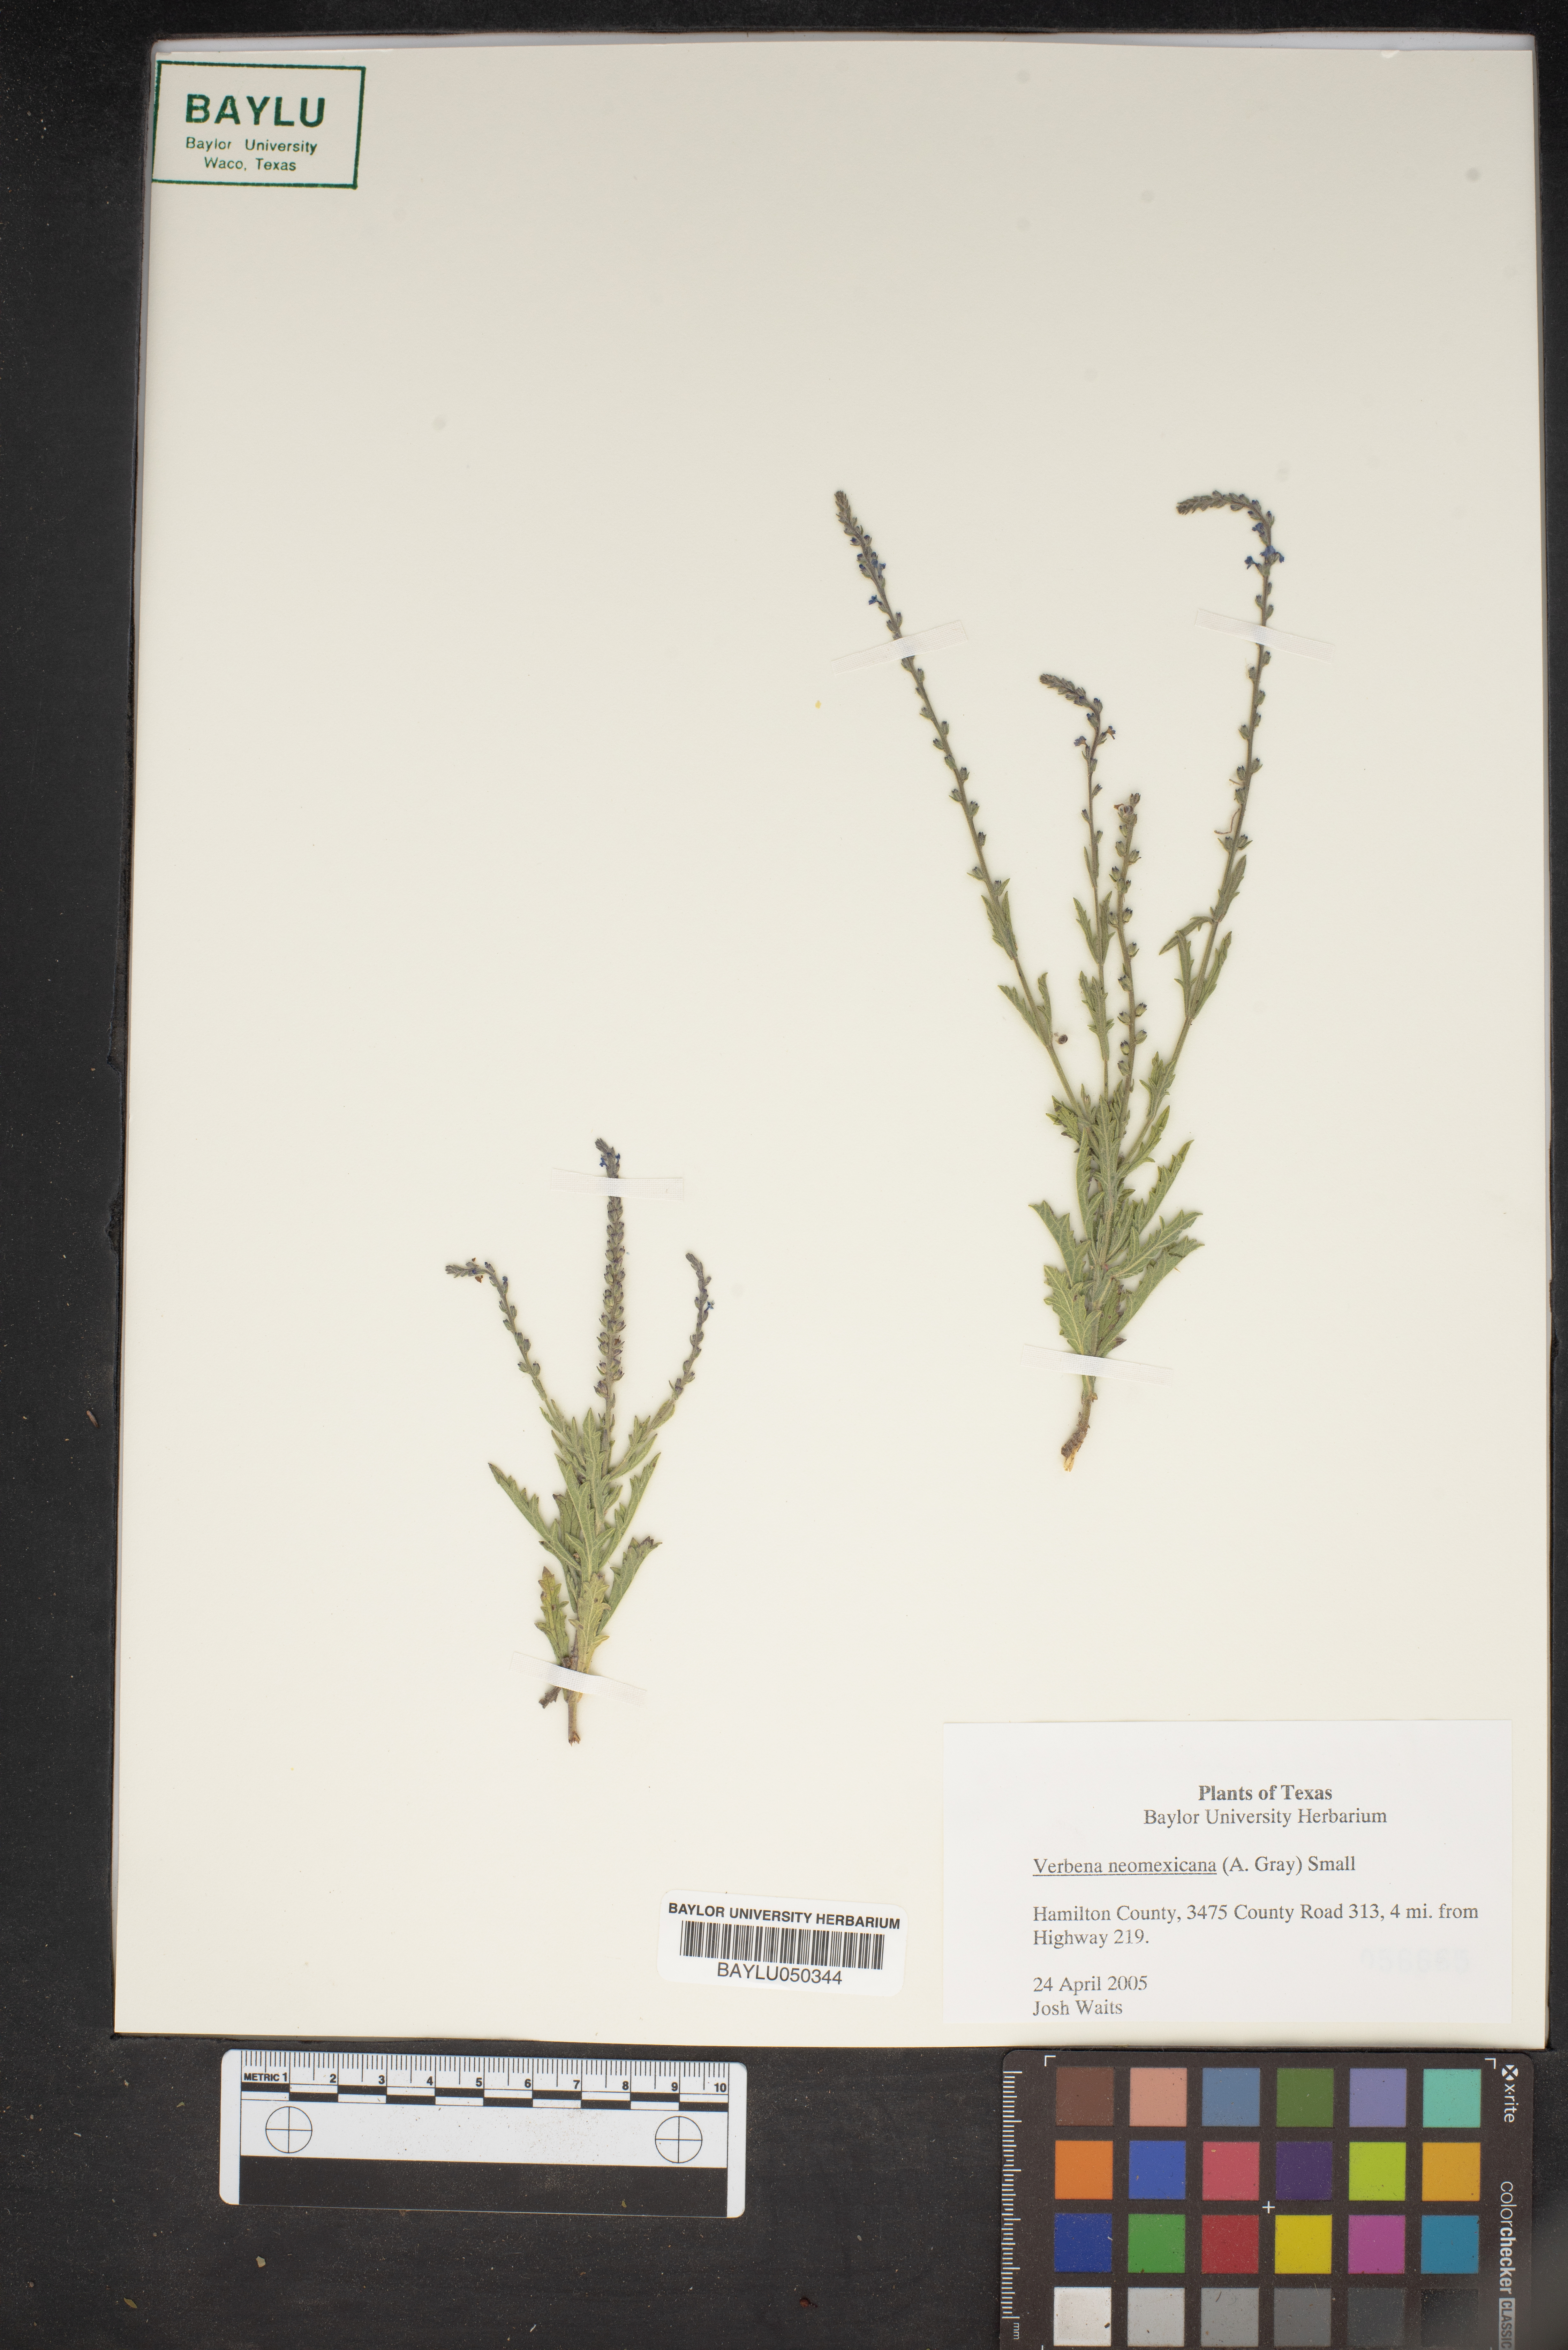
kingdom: Plantae
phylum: Tracheophyta
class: Magnoliopsida
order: Lamiales
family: Verbenaceae
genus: Verbena
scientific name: Verbena neomexicana
